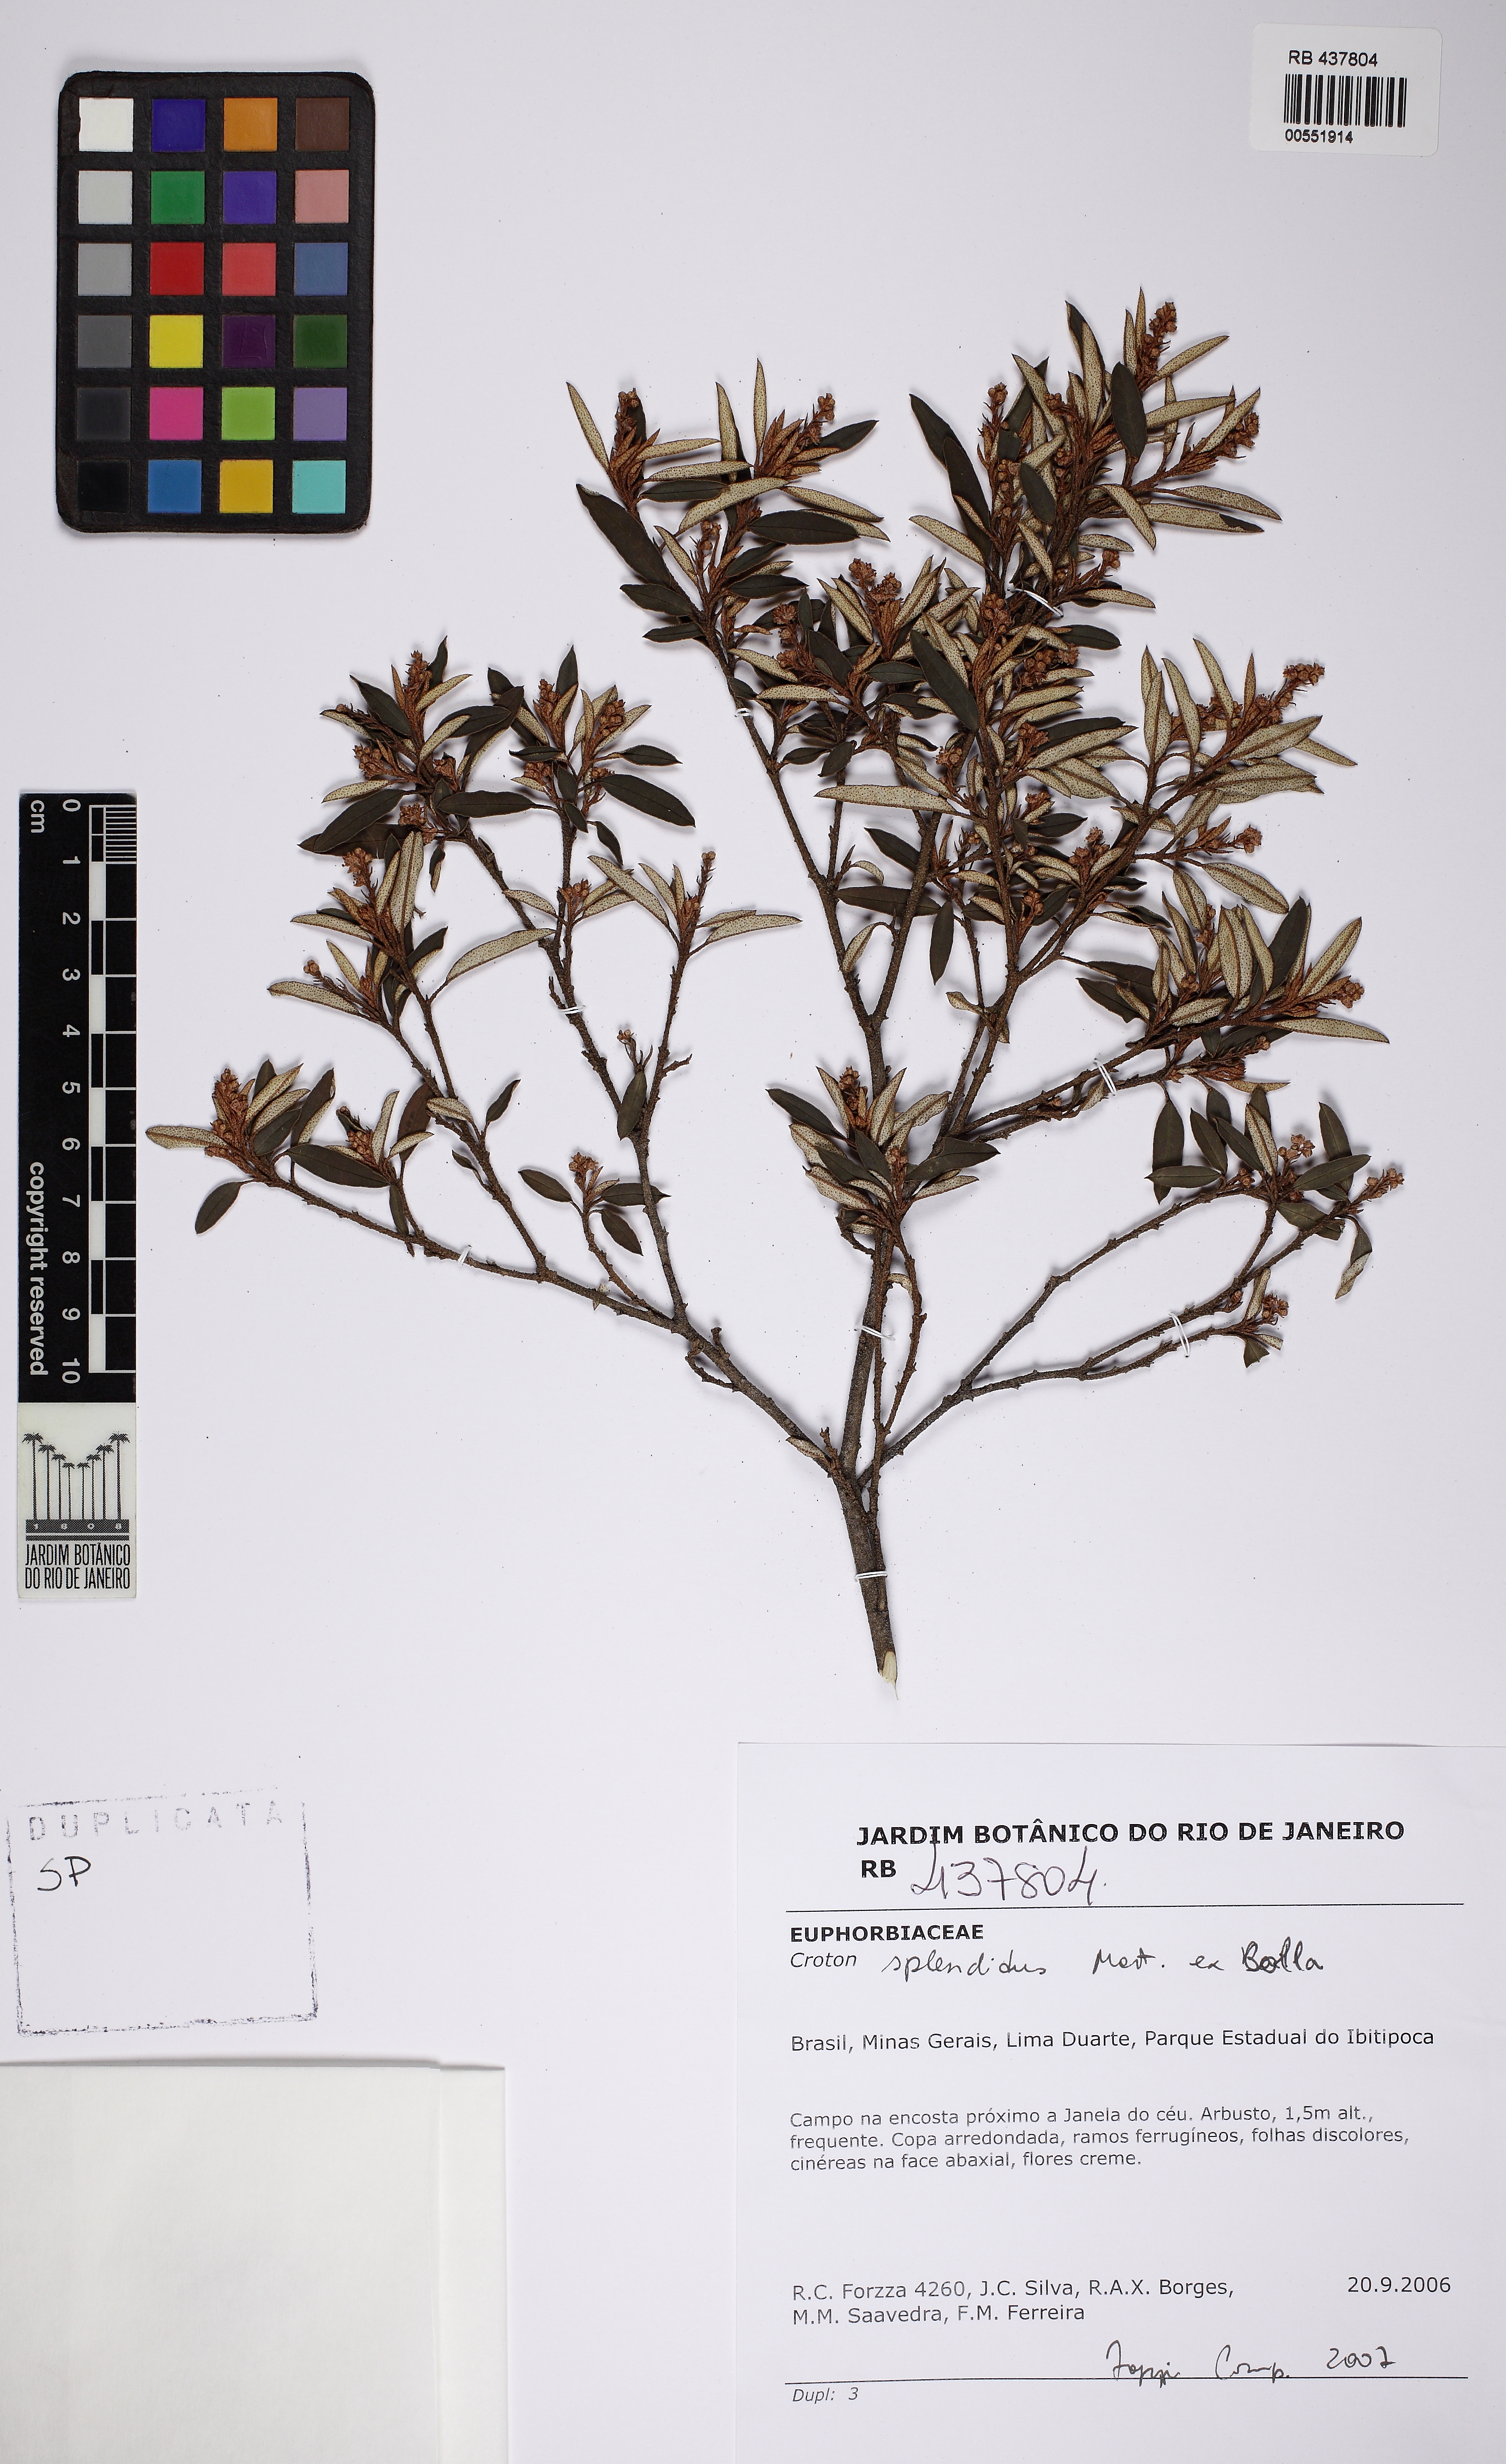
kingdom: Plantae
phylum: Tracheophyta
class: Magnoliopsida
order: Malpighiales
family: Euphorbiaceae
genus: Croton
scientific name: Croton splendidus
